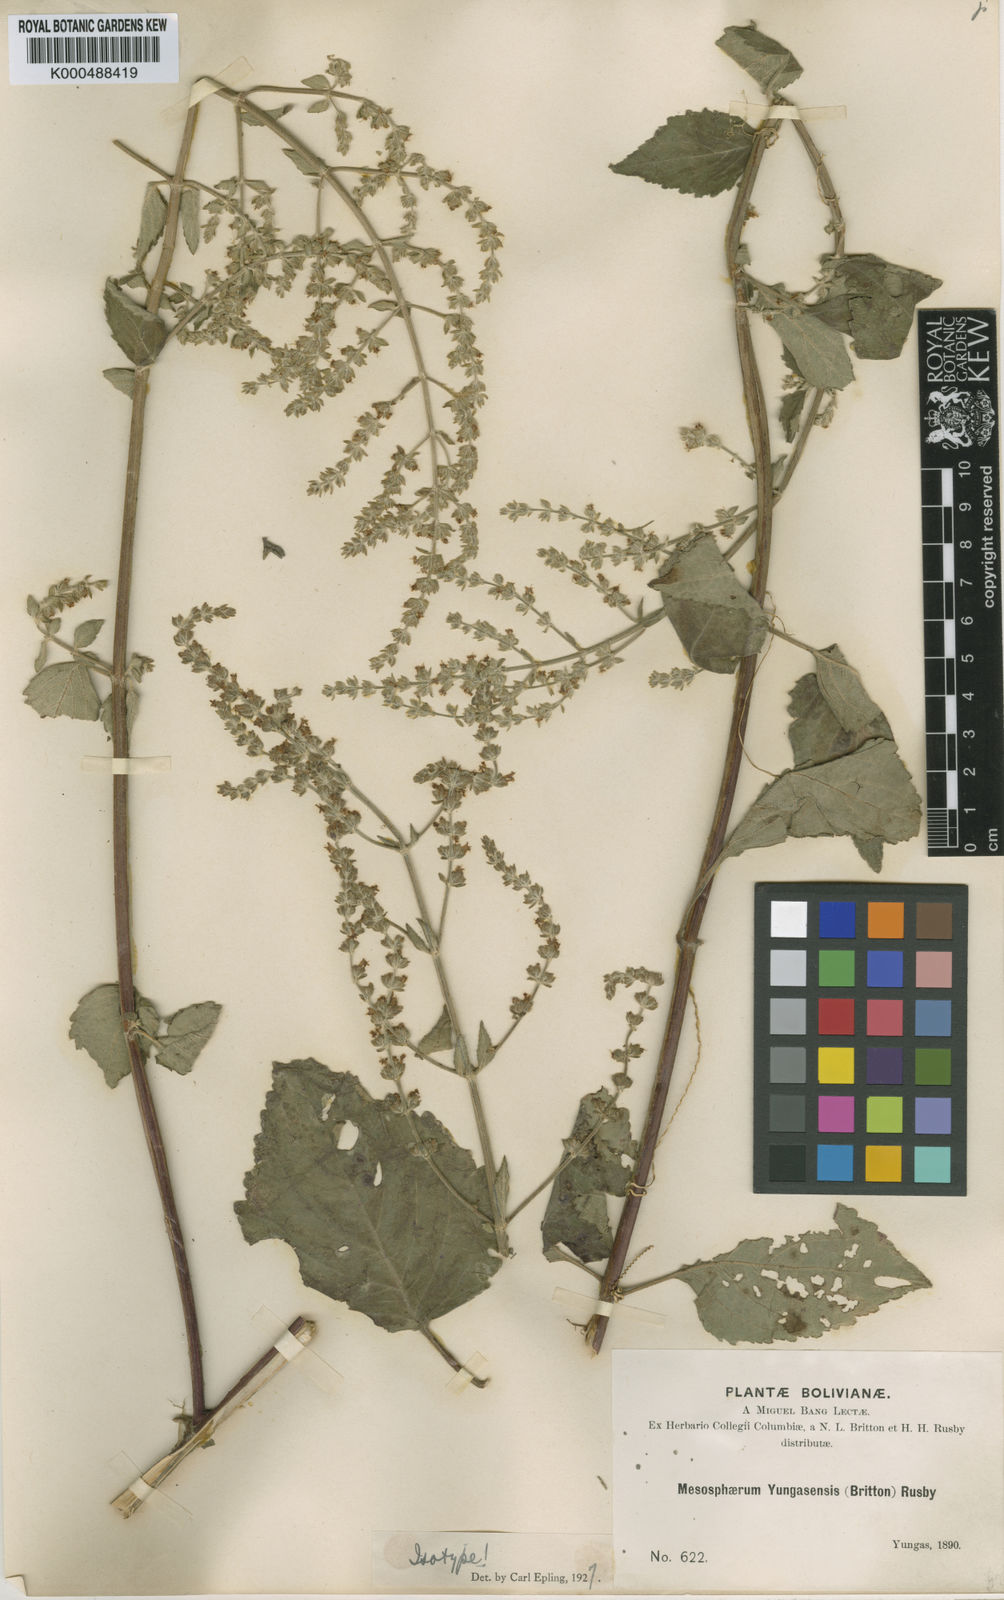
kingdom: Plantae
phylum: Tracheophyta
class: Magnoliopsida
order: Lamiales
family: Lamiaceae
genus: Cantinoa
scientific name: Cantinoa mutabilis
